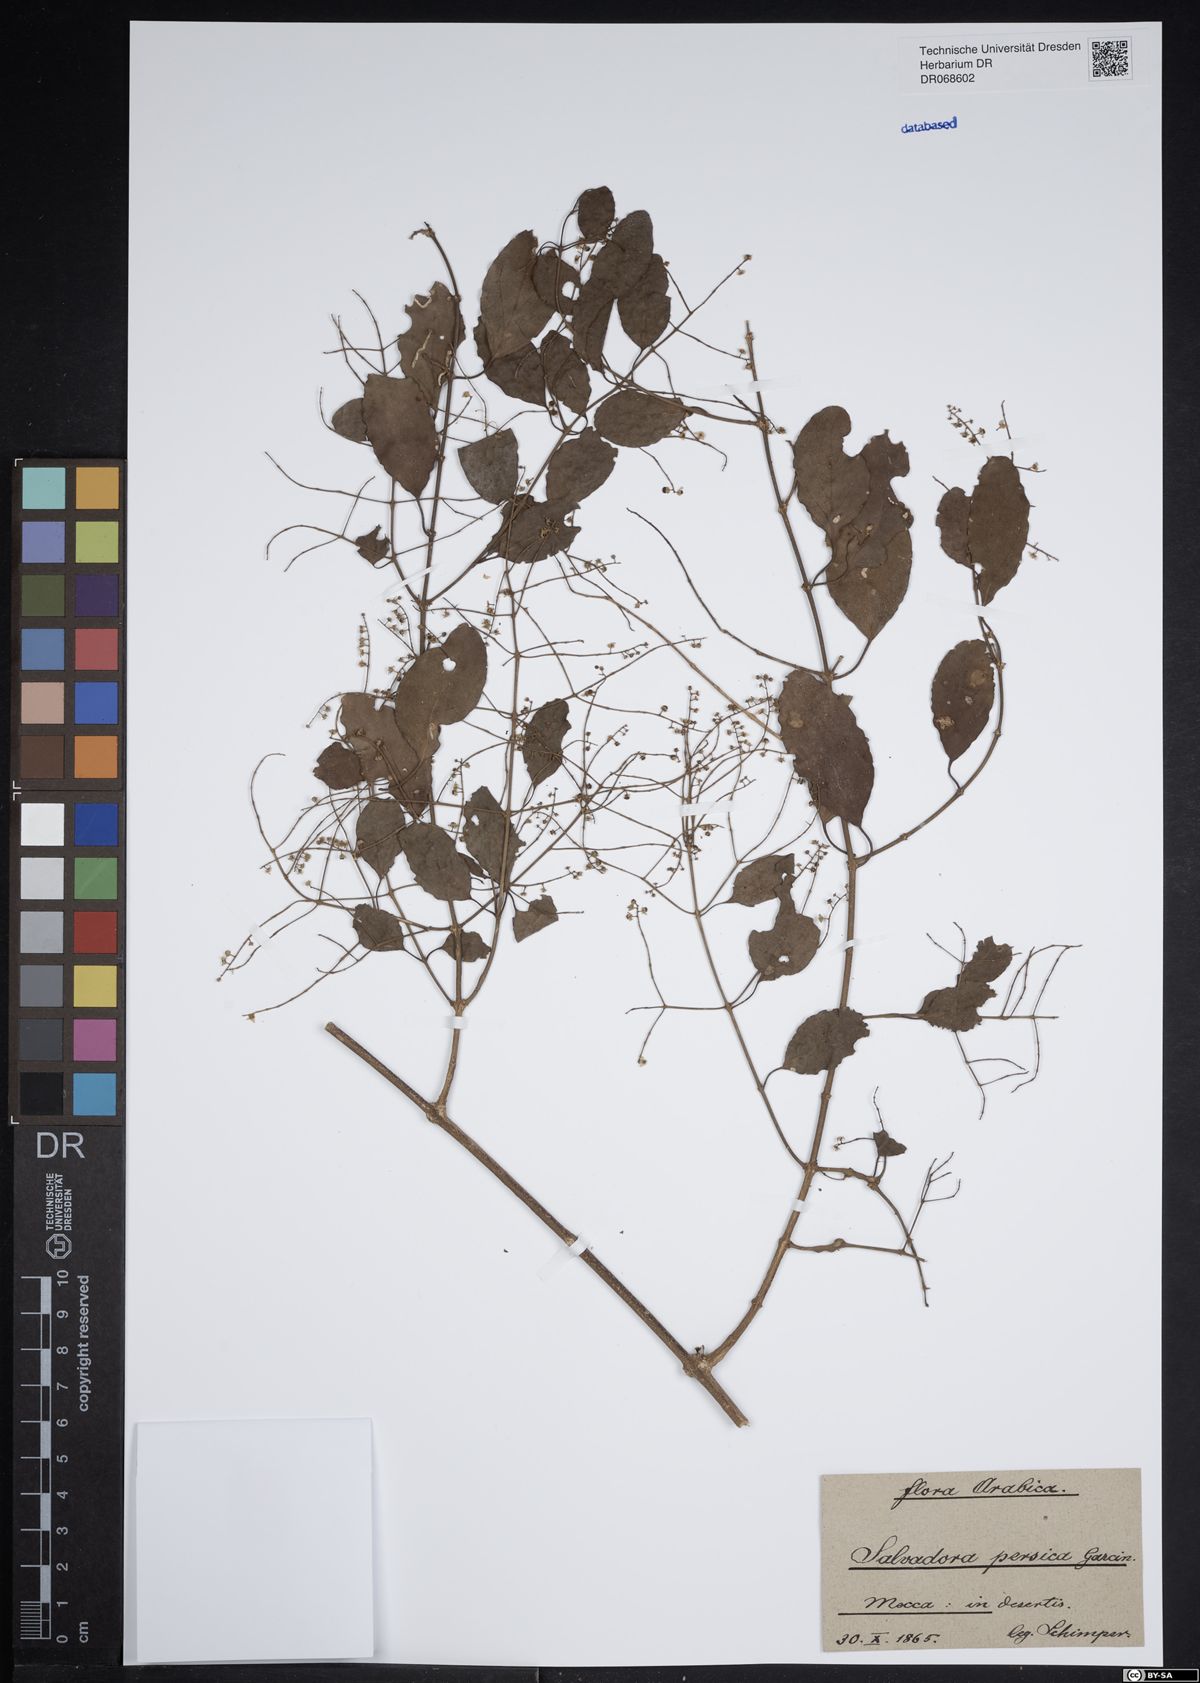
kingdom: Plantae
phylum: Tracheophyta
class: Magnoliopsida
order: Brassicales
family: Salvadoraceae
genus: Salvadora
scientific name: Salvadora persica
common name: Toothbrushtree
